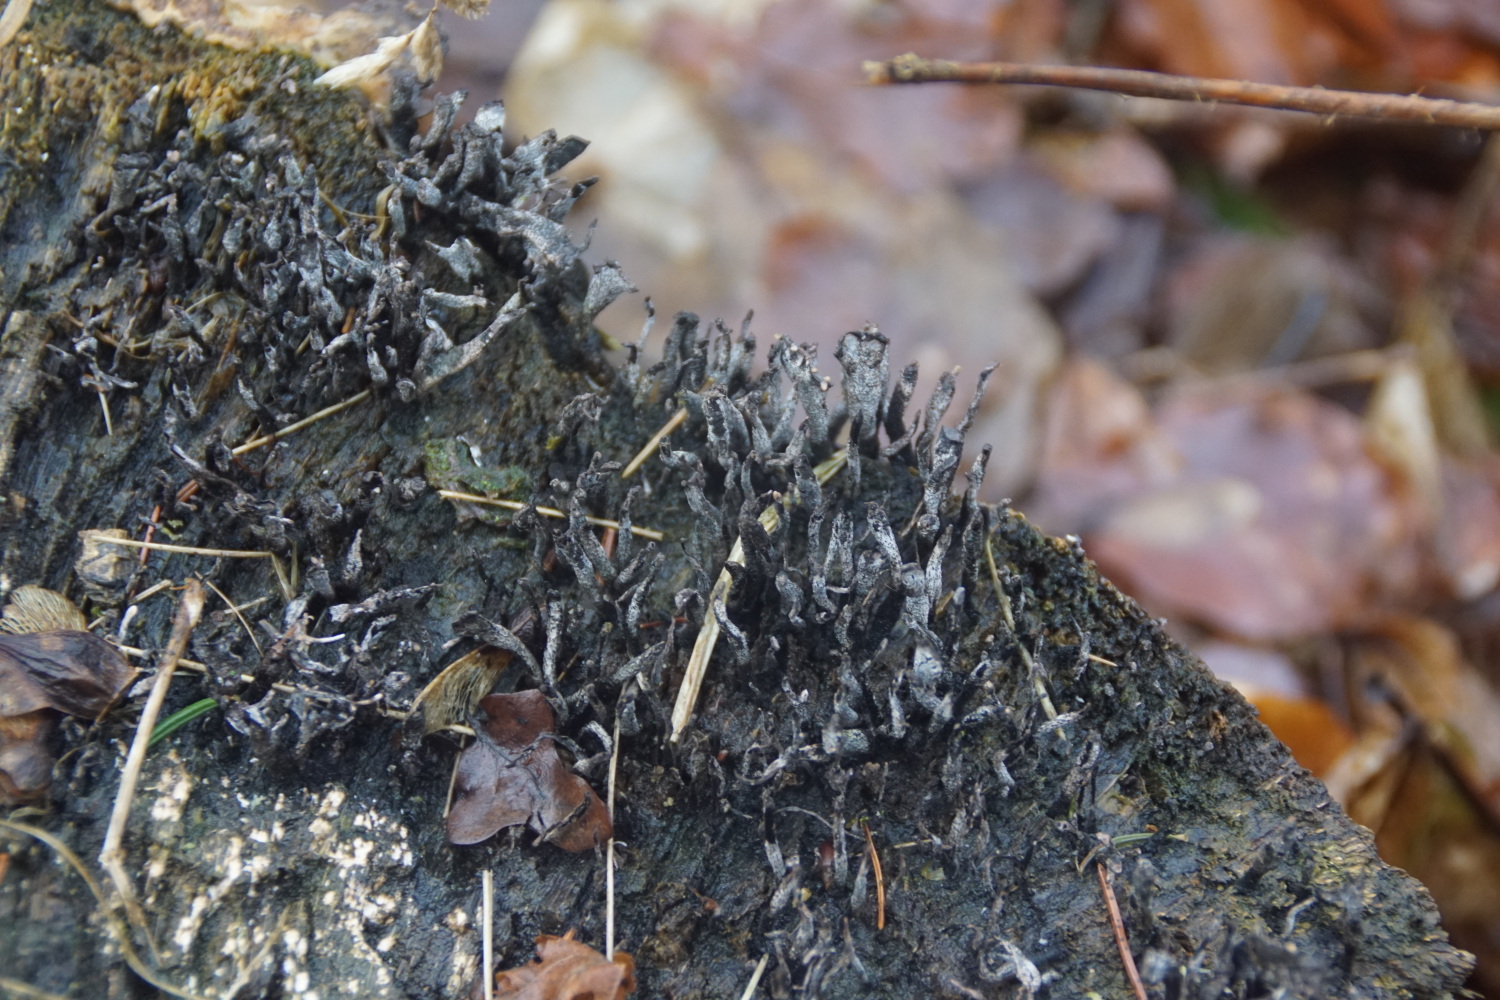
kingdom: Fungi
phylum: Ascomycota
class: Sordariomycetes
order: Xylariales
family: Xylariaceae
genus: Xylaria
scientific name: Xylaria hypoxylon
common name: grenet stødsvamp
